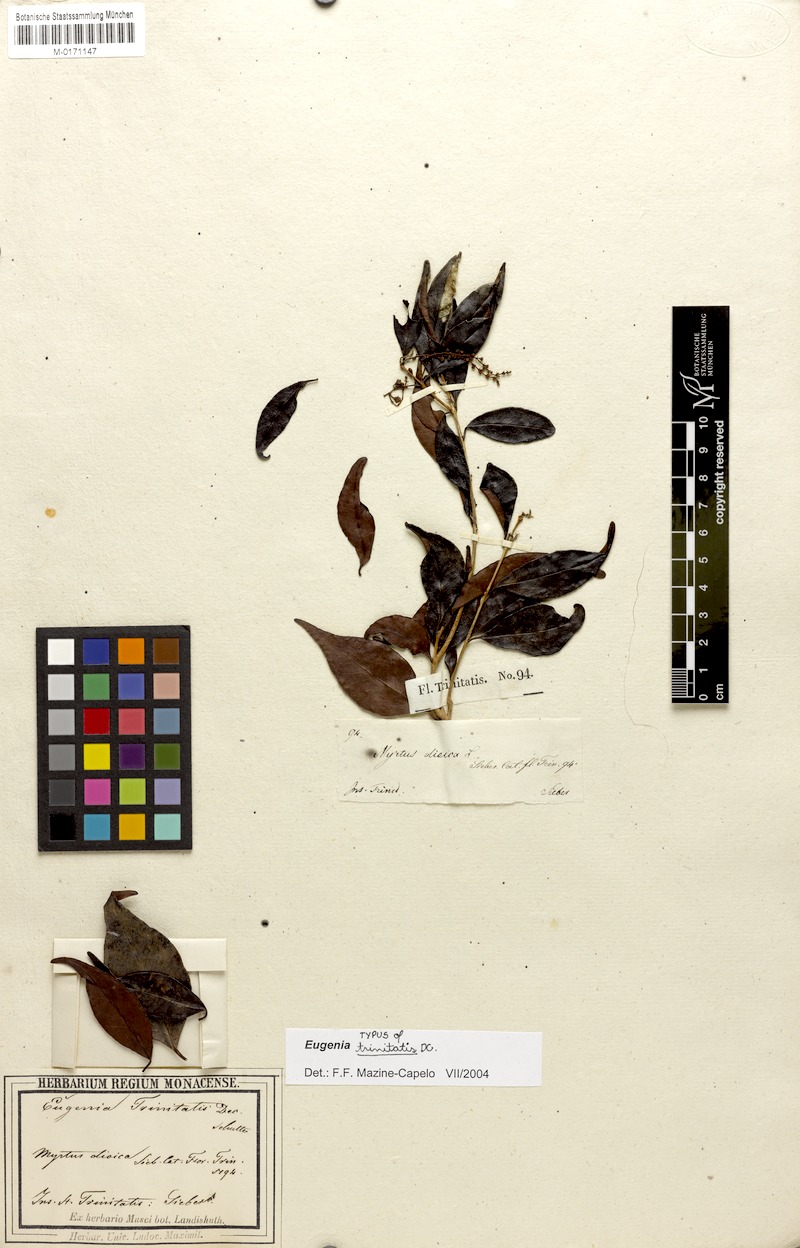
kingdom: Plantae
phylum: Tracheophyta
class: Magnoliopsida
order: Myrtales
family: Myrtaceae
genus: Eugenia
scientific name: Eugenia trinitatis
